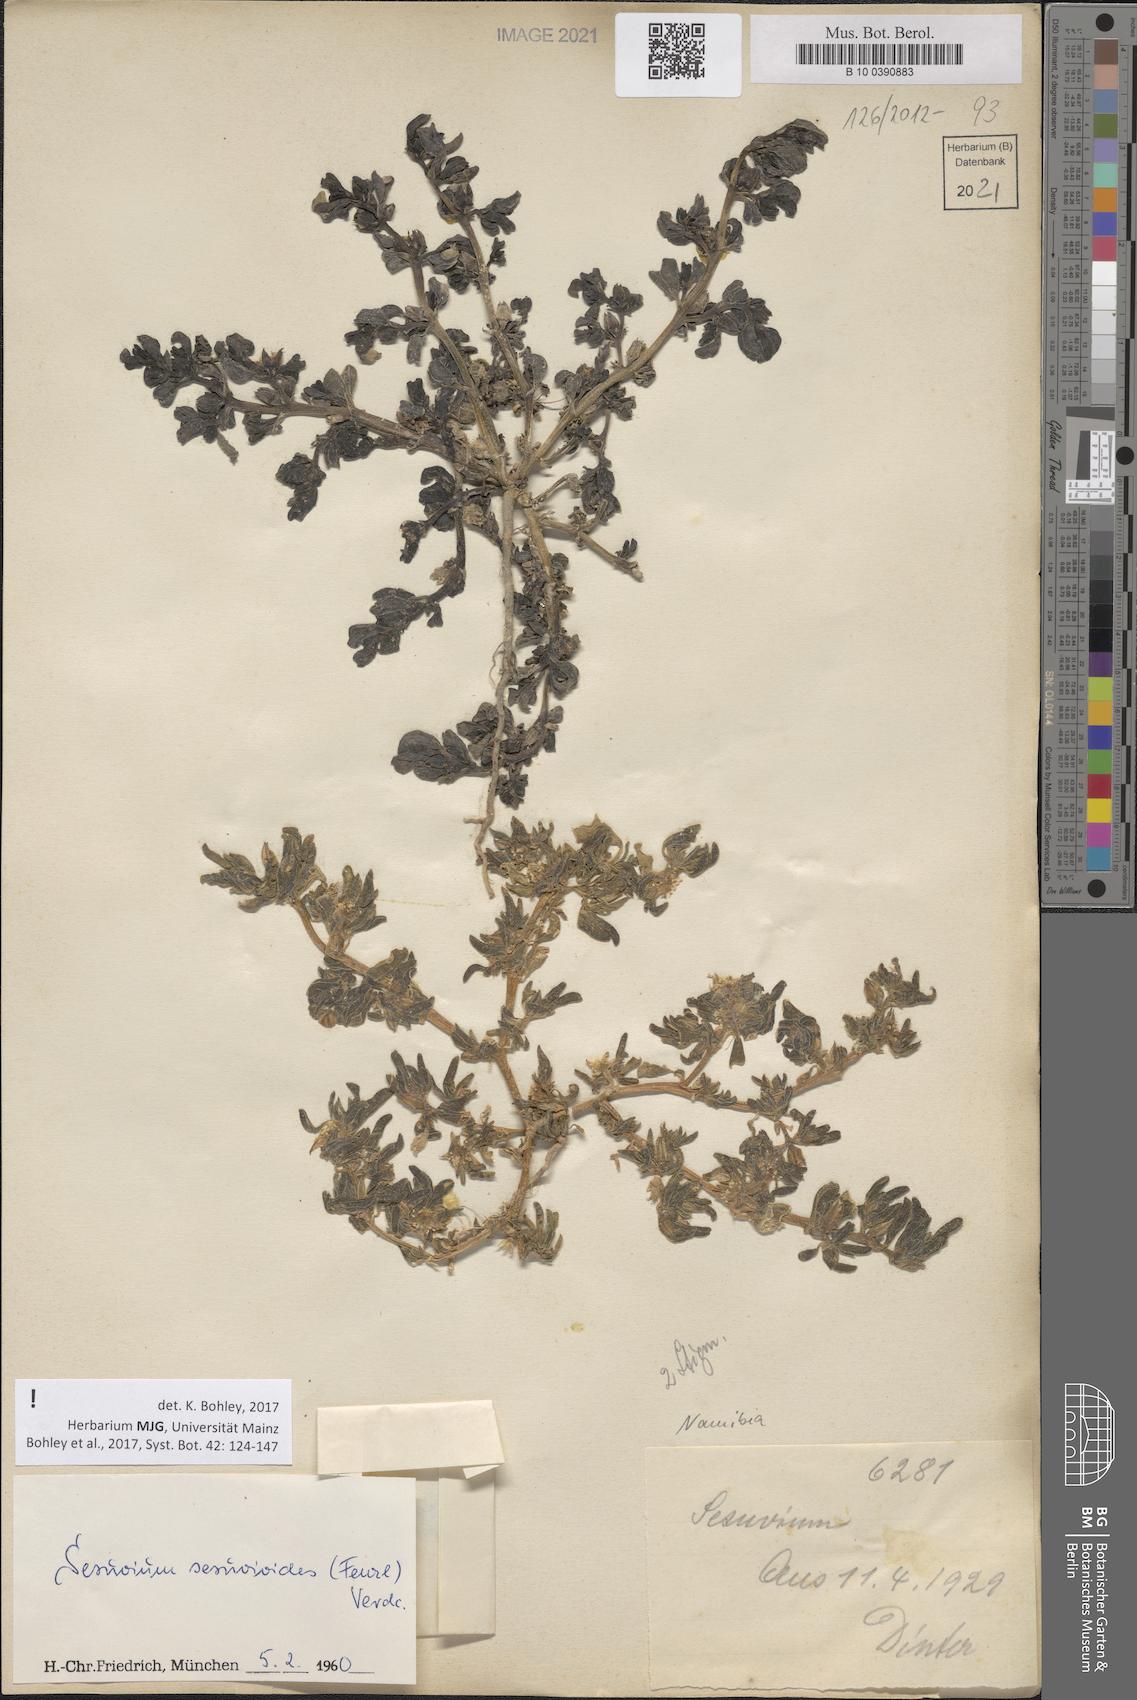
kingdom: Plantae
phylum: Tracheophyta
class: Magnoliopsida
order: Caryophyllales
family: Aizoaceae
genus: Sesuvium
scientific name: Sesuvium sesuvioides
